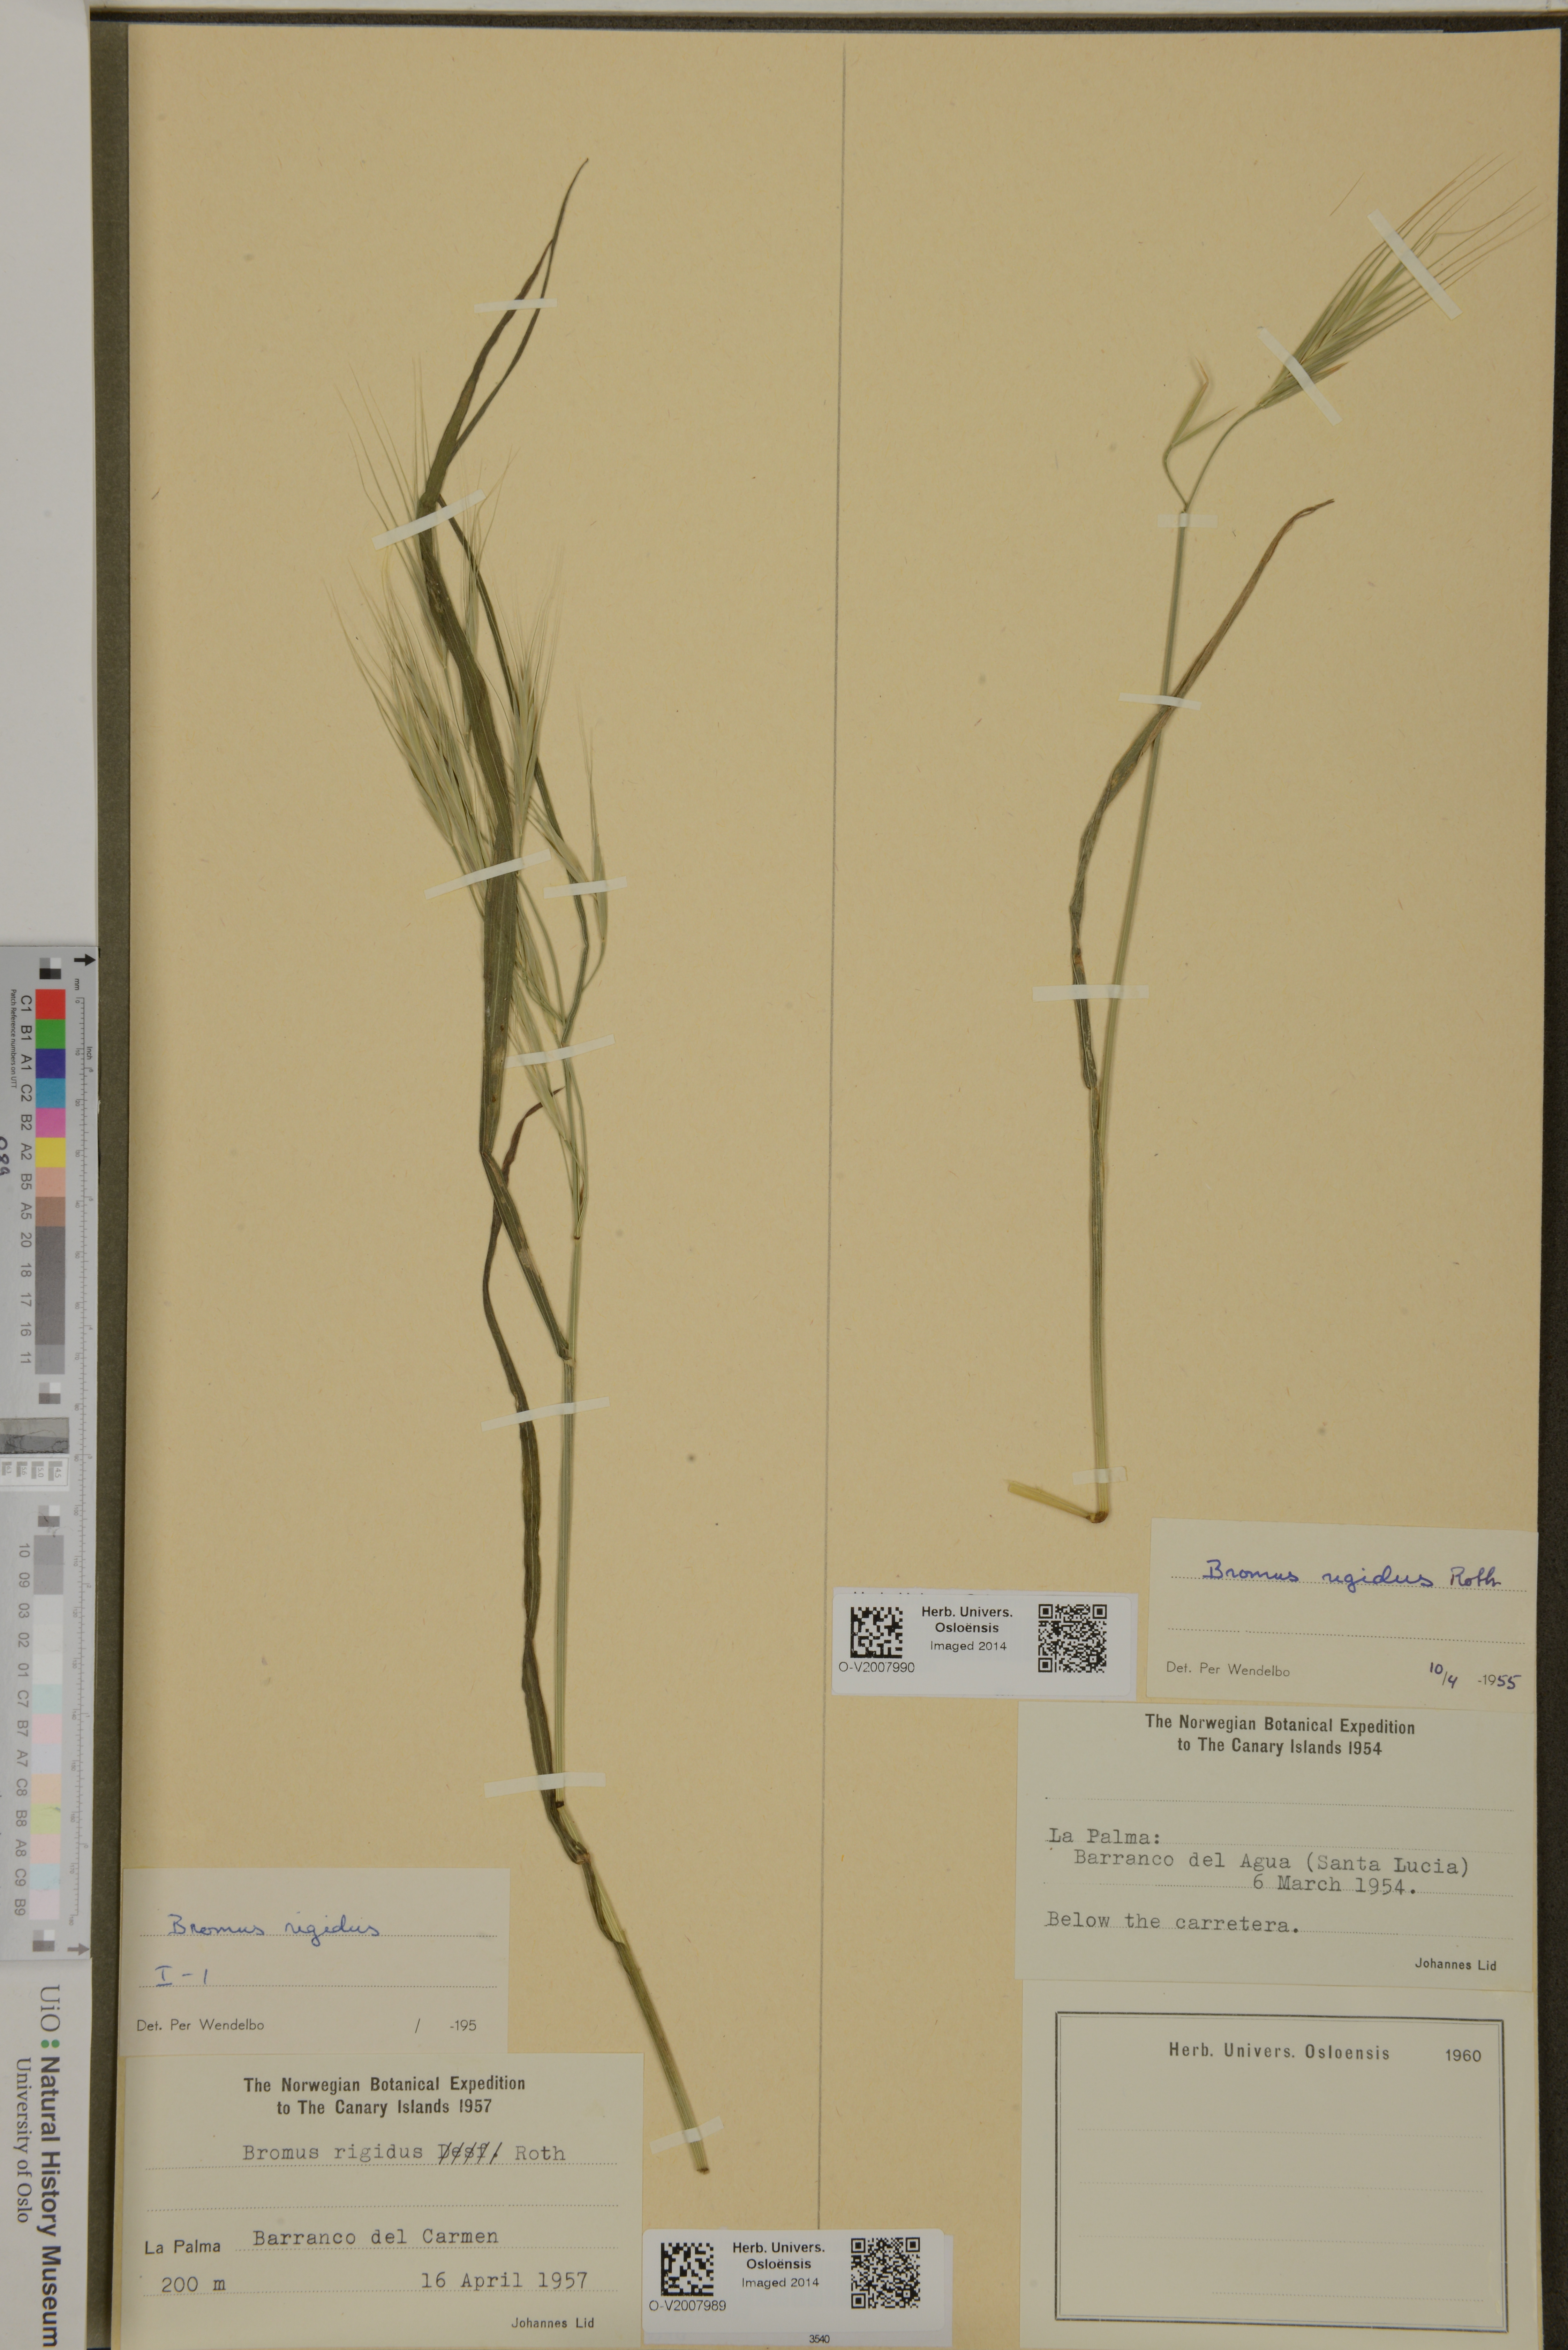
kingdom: Plantae
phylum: Tracheophyta
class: Liliopsida
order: Poales
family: Poaceae
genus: Bromus
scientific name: Bromus rigidus
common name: Ripgut brome
